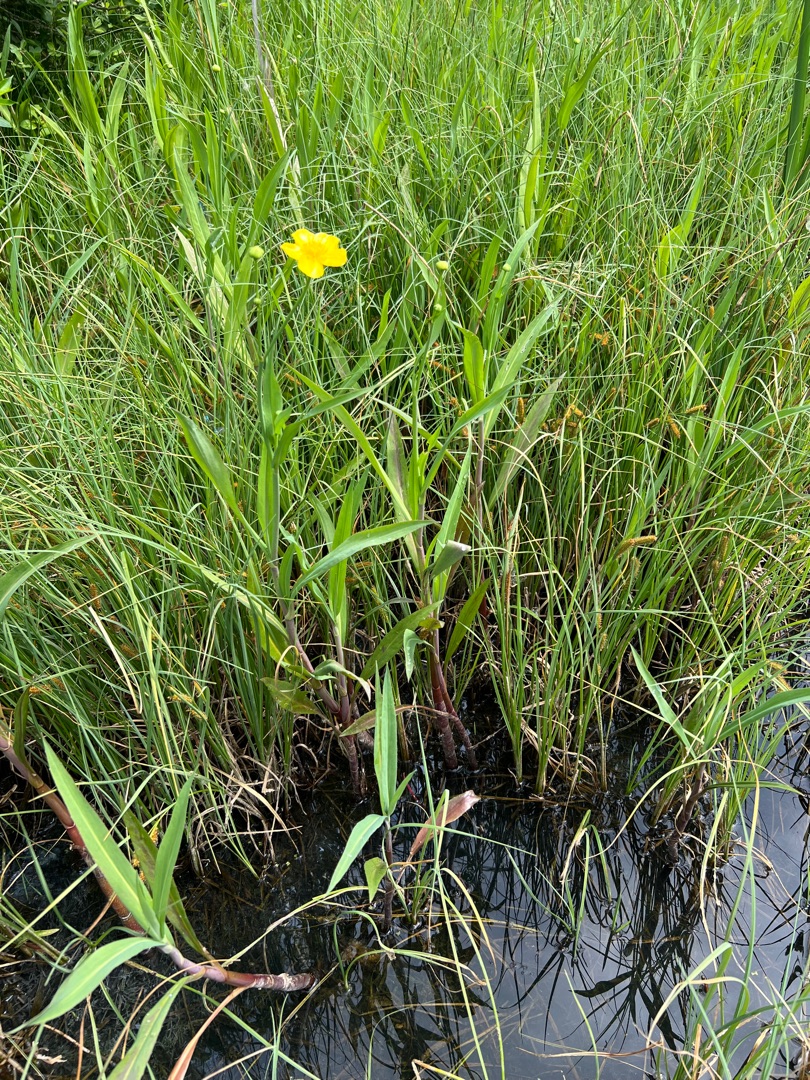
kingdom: Plantae
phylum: Tracheophyta
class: Magnoliopsida
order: Ranunculales
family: Ranunculaceae
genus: Ranunculus
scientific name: Ranunculus lingua
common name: Langbladet ranunkel
